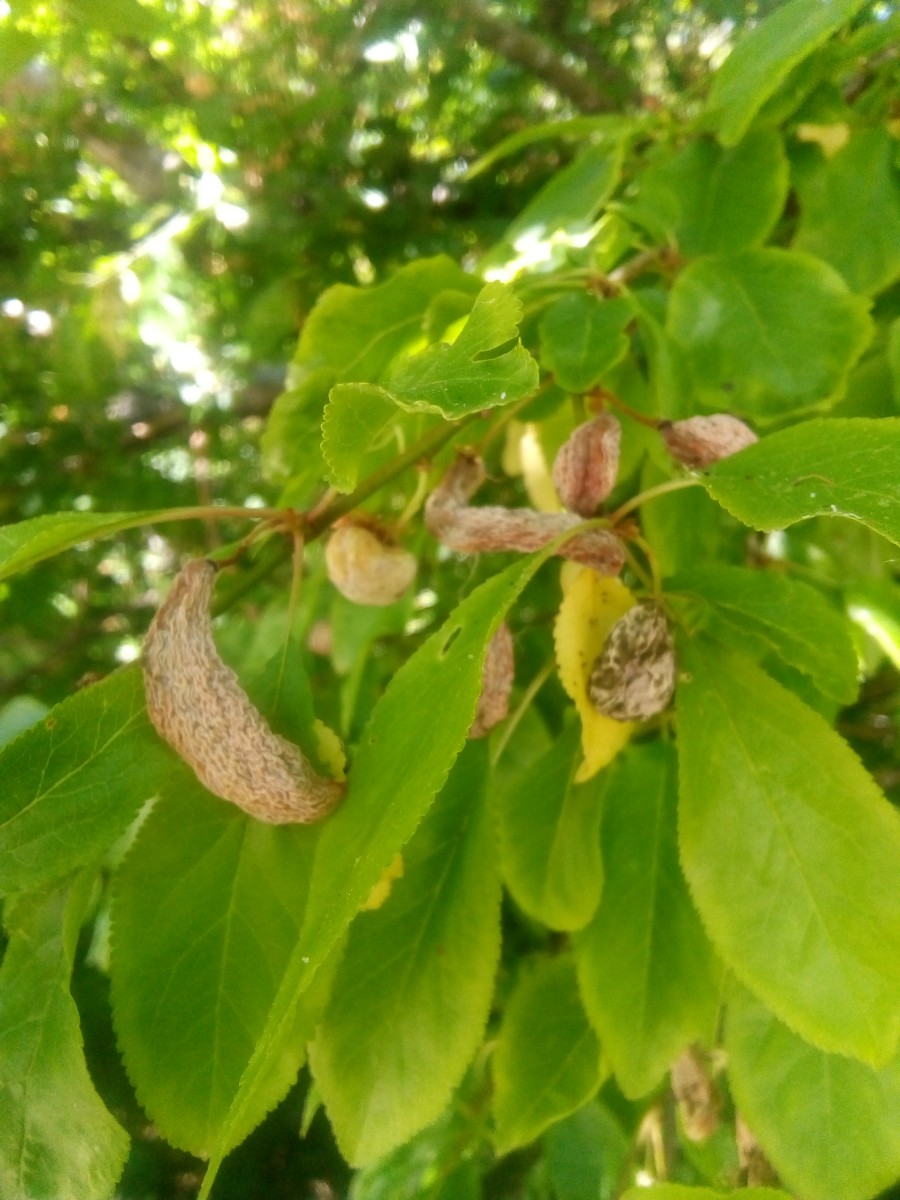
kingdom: Fungi
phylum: Ascomycota
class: Taphrinomycetes
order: Taphrinales
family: Taphrinaceae
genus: Taphrina
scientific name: Taphrina pruni
